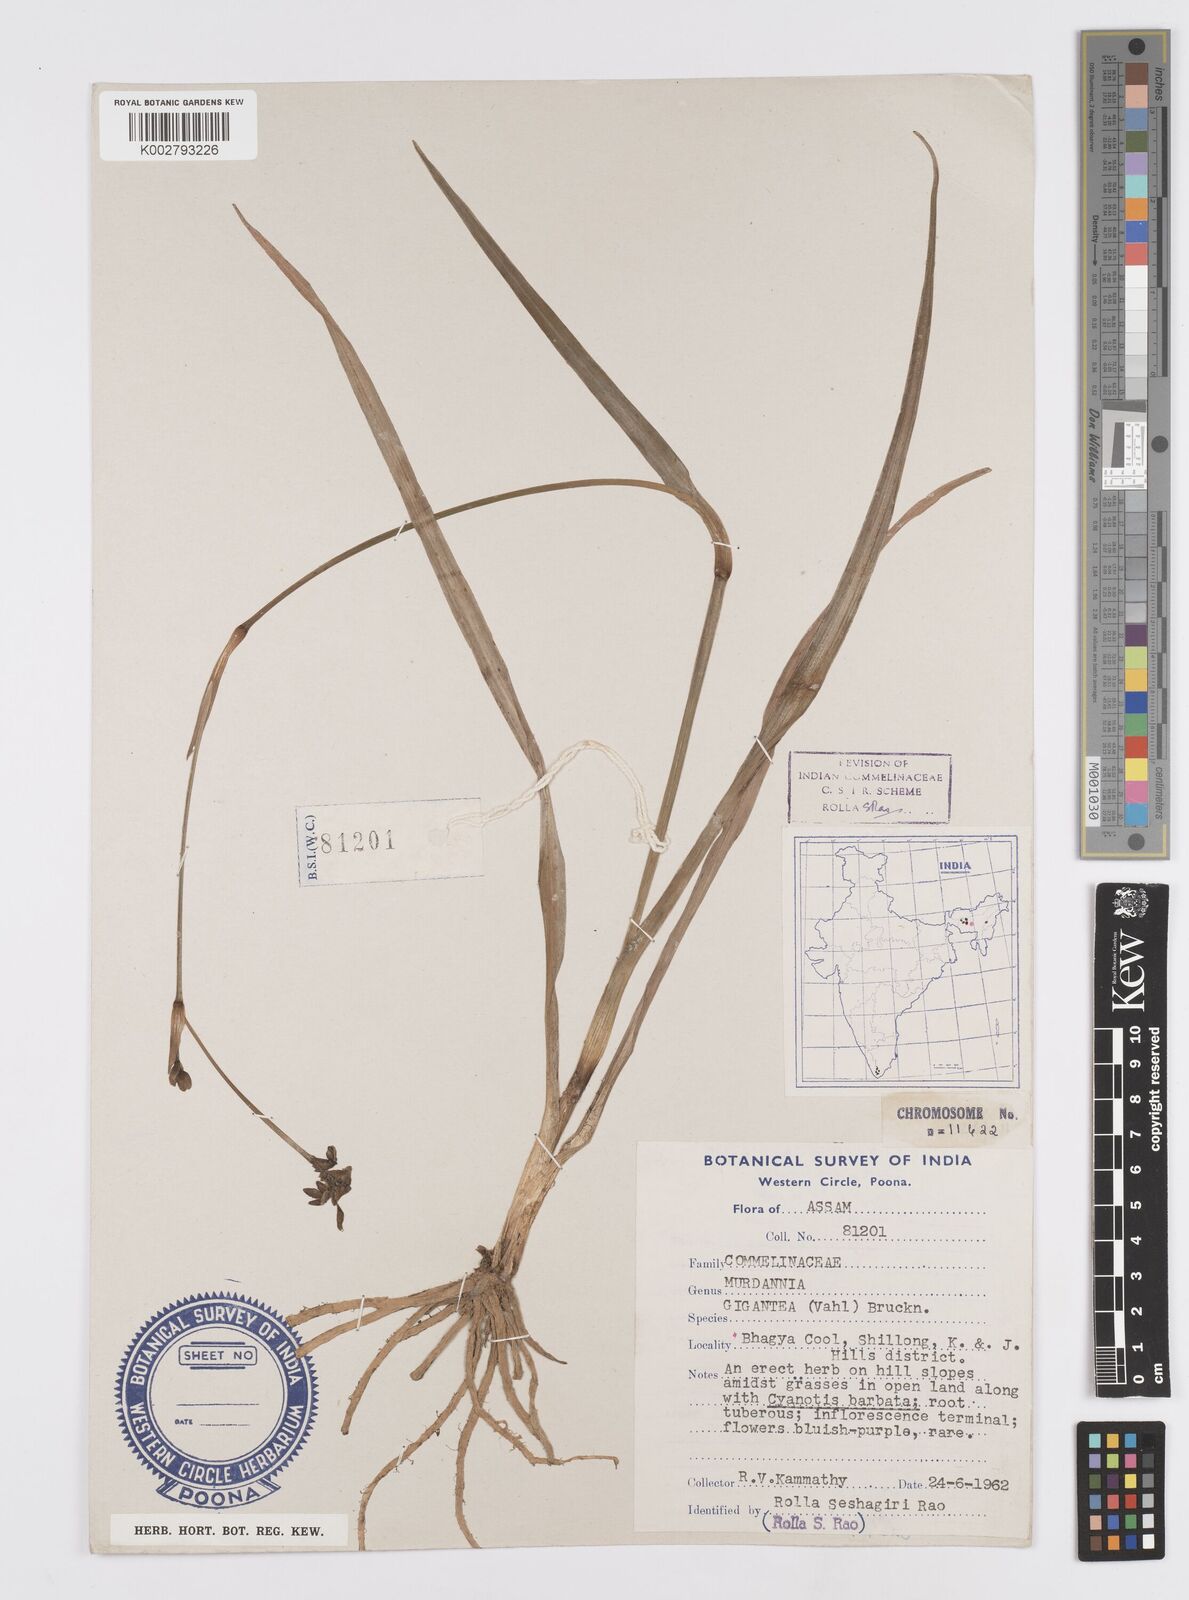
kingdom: Plantae
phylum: Tracheophyta
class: Liliopsida
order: Commelinales
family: Commelinaceae
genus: Murdannia
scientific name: Murdannia gigantea
